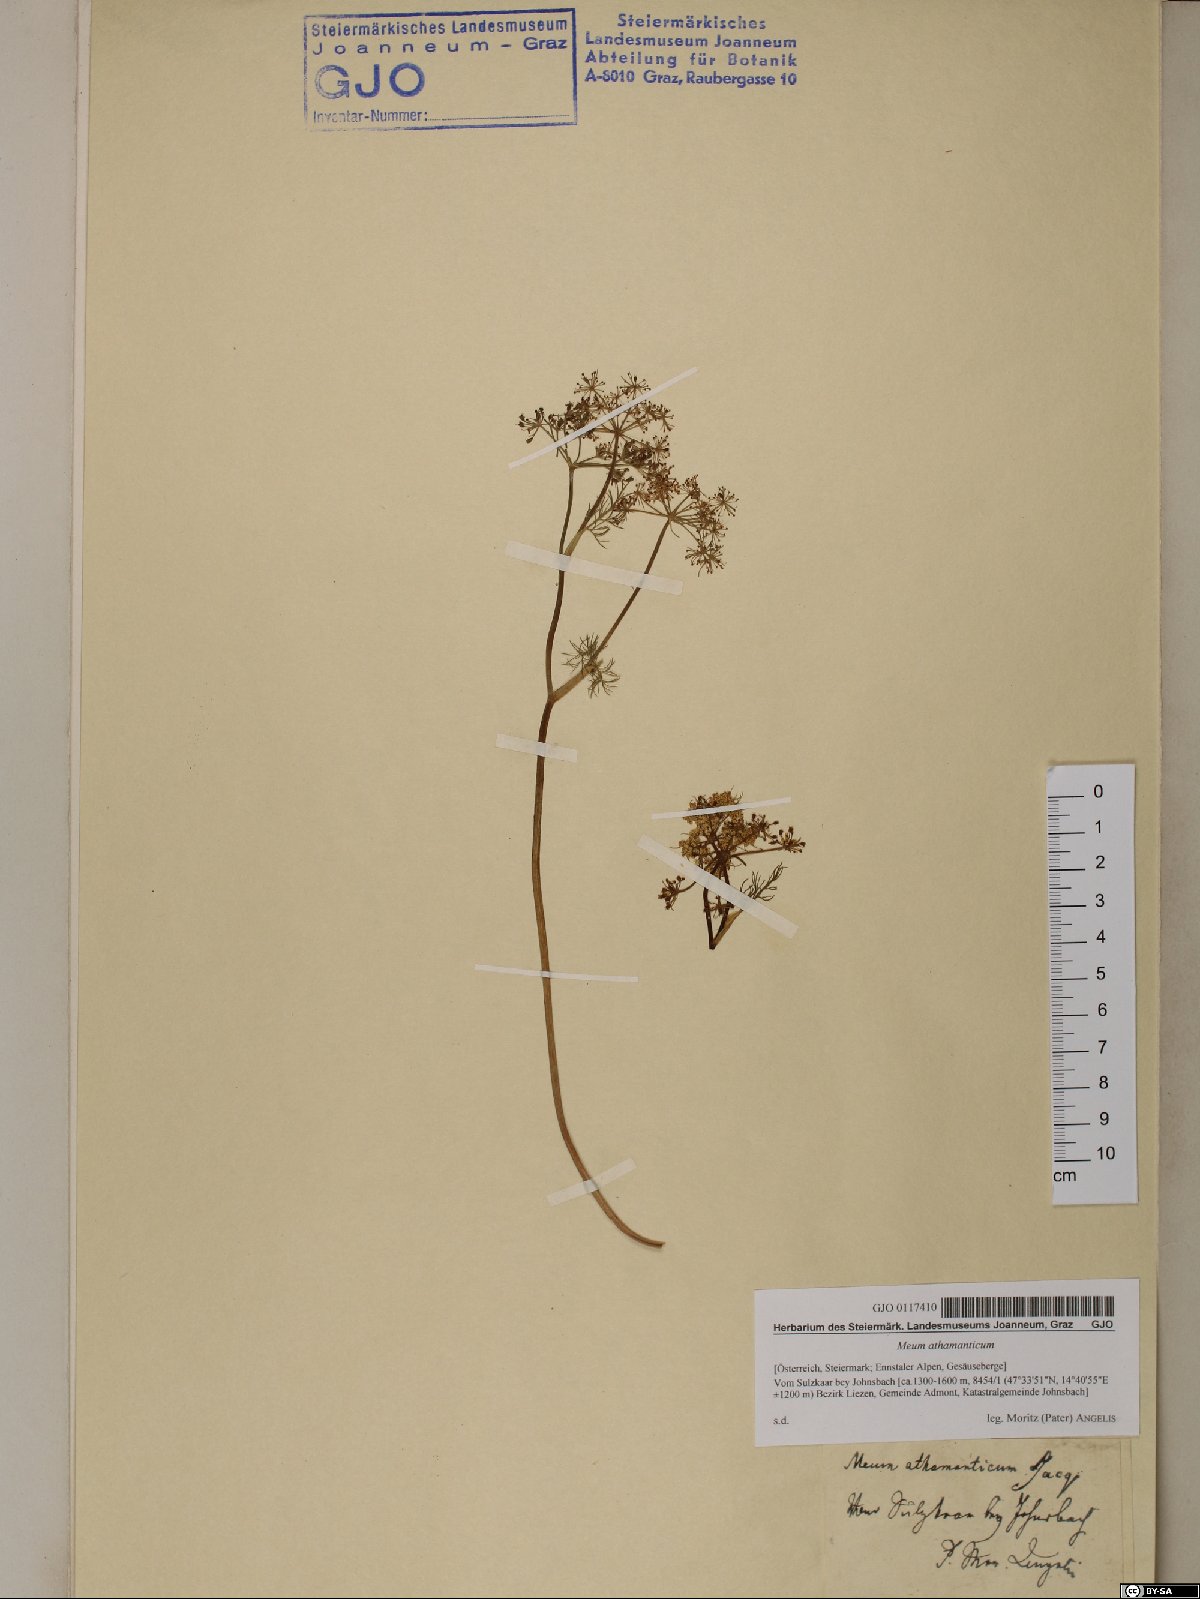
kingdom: Plantae
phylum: Tracheophyta
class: Magnoliopsida
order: Apiales
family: Apiaceae
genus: Meum
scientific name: Meum athamanticum
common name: Spignel
